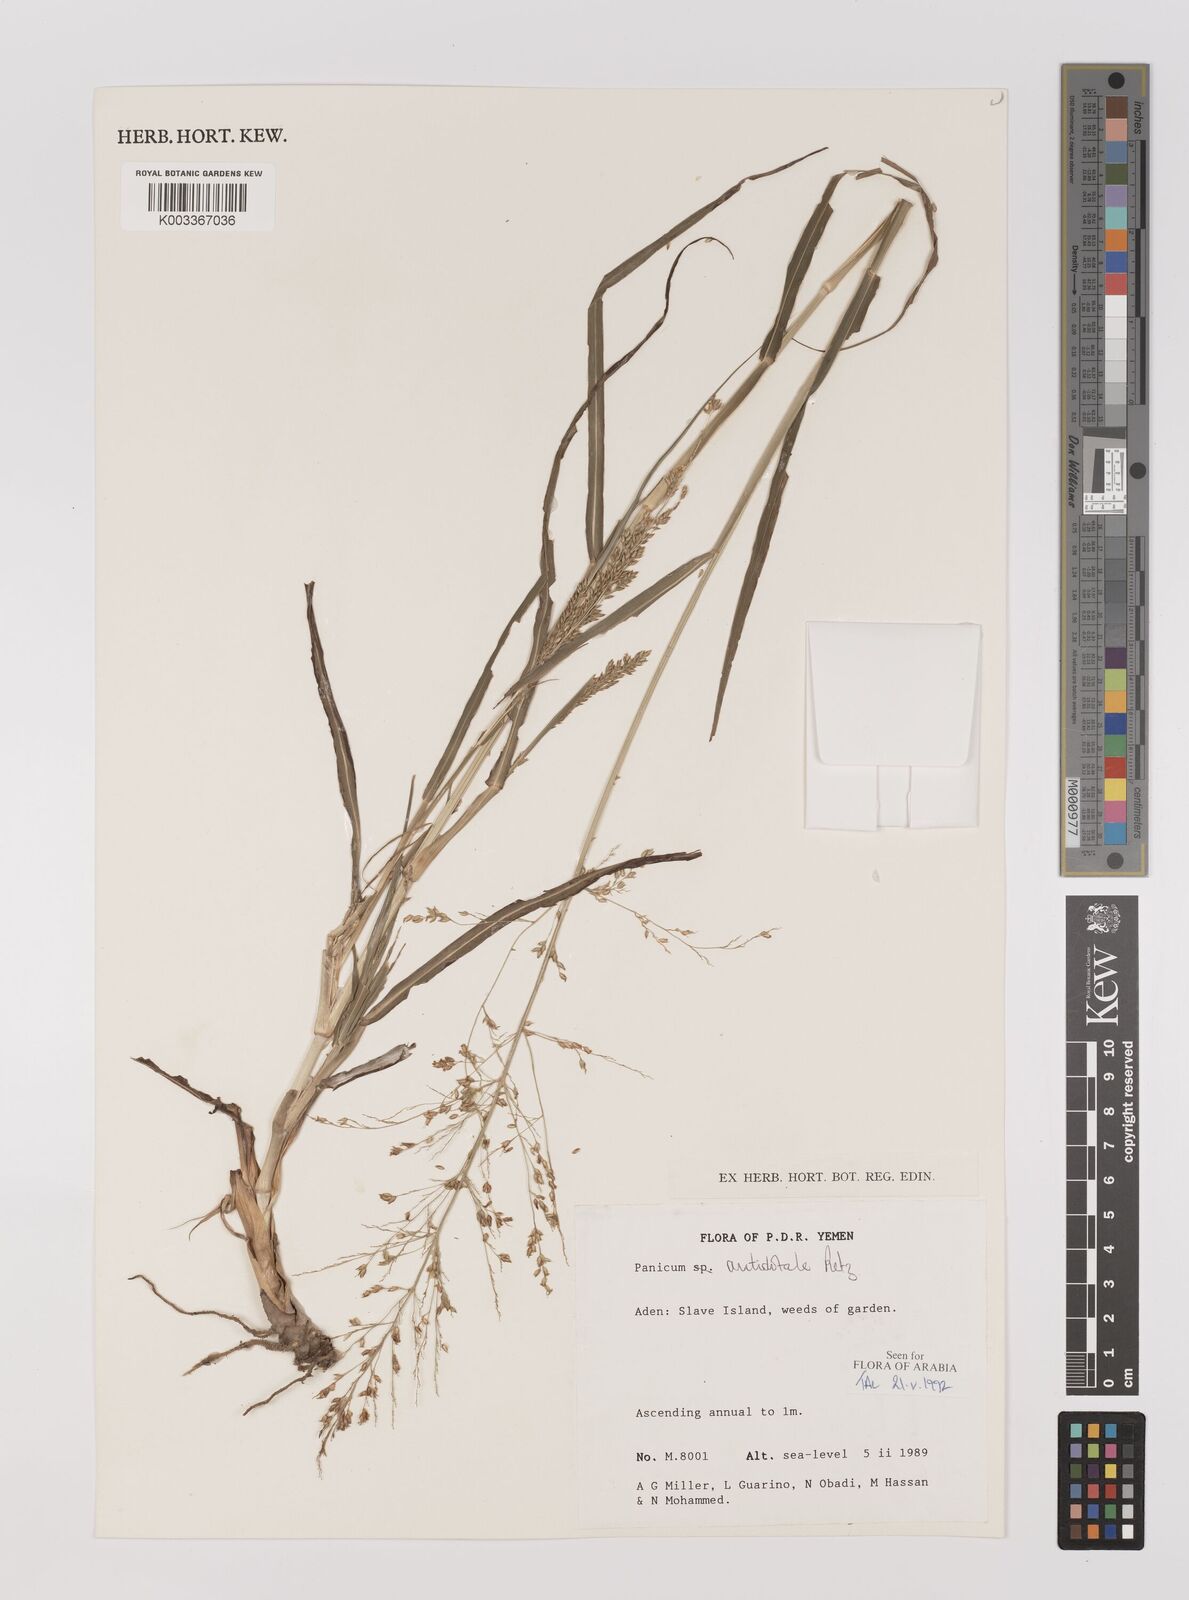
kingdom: Plantae
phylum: Tracheophyta
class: Liliopsida
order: Poales
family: Poaceae
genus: Panicum
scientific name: Panicum antidotale
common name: Blue panicum
